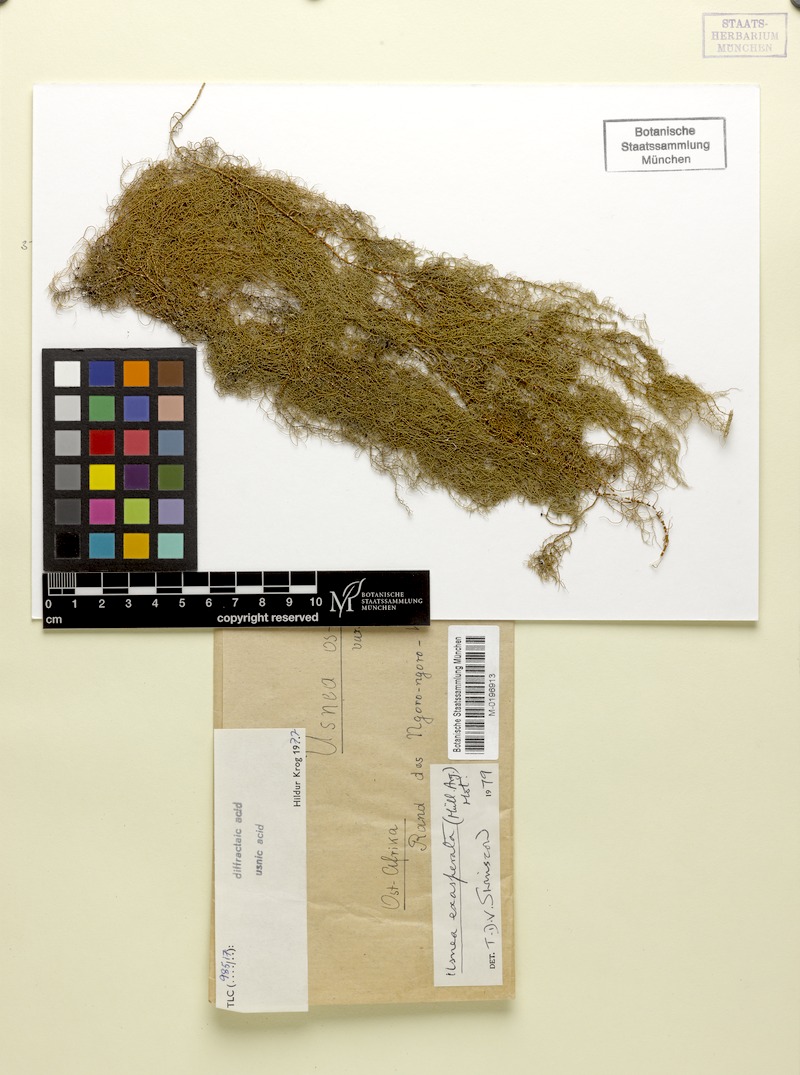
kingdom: Fungi
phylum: Ascomycota
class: Lecanoromycetes
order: Lecanorales
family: Parmeliaceae
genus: Xanthoparmelia
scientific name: Xanthoparmelia amplexula
